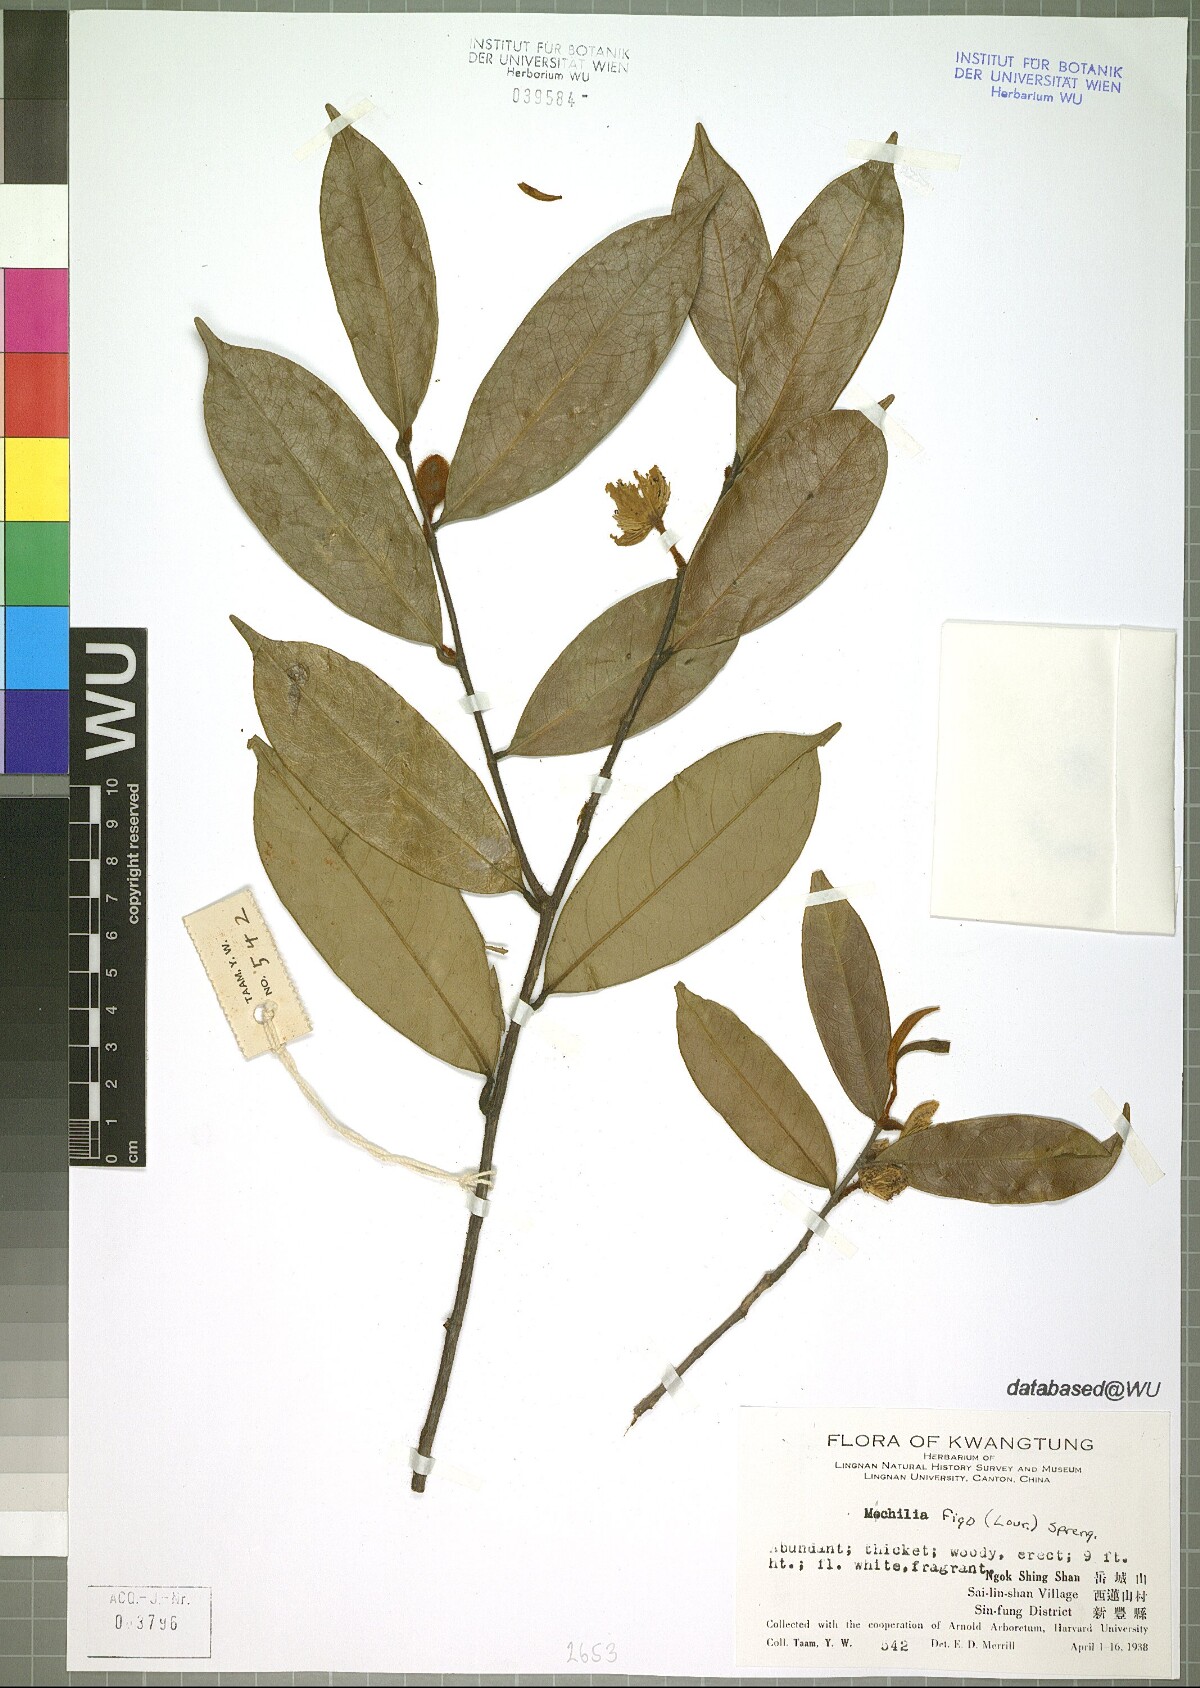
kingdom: Plantae
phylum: Tracheophyta
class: Magnoliopsida
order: Magnoliales
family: Magnoliaceae
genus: Magnolia
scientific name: Magnolia figo
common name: Banana shrub
